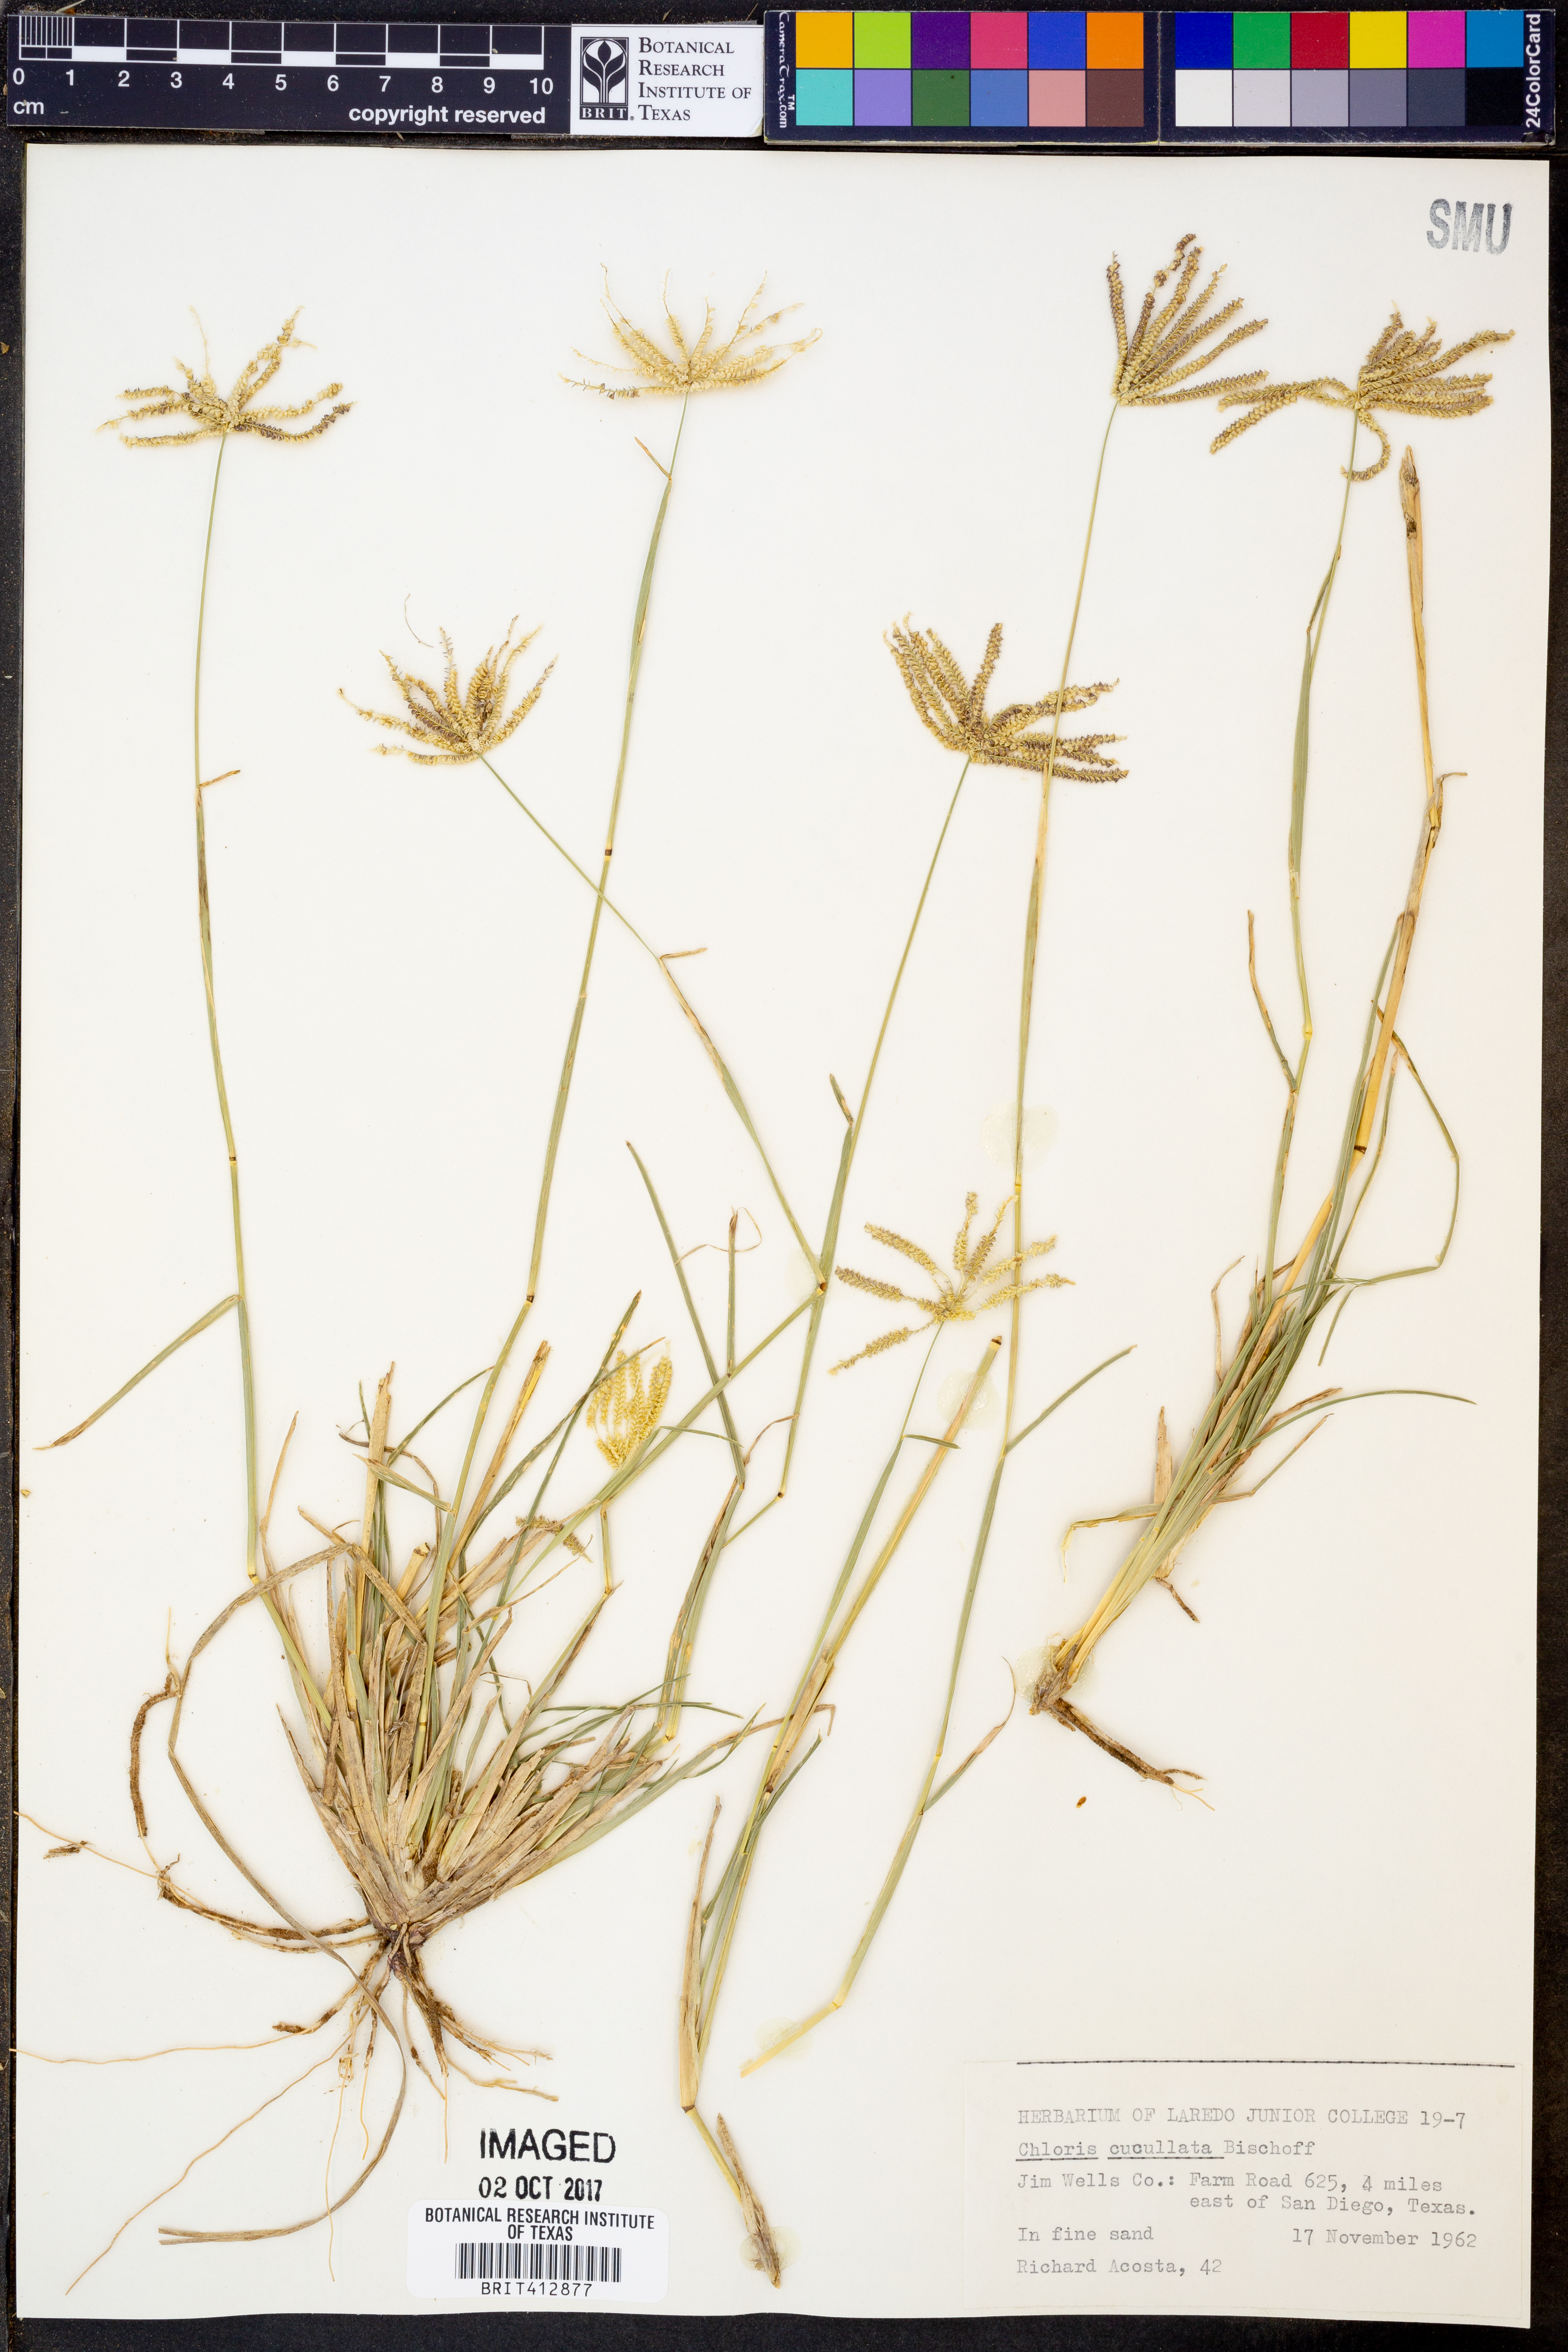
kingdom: Plantae
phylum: Tracheophyta
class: Liliopsida
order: Poales
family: Poaceae
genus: Chloris
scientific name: Chloris cucullata
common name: Hooded windmill grass
